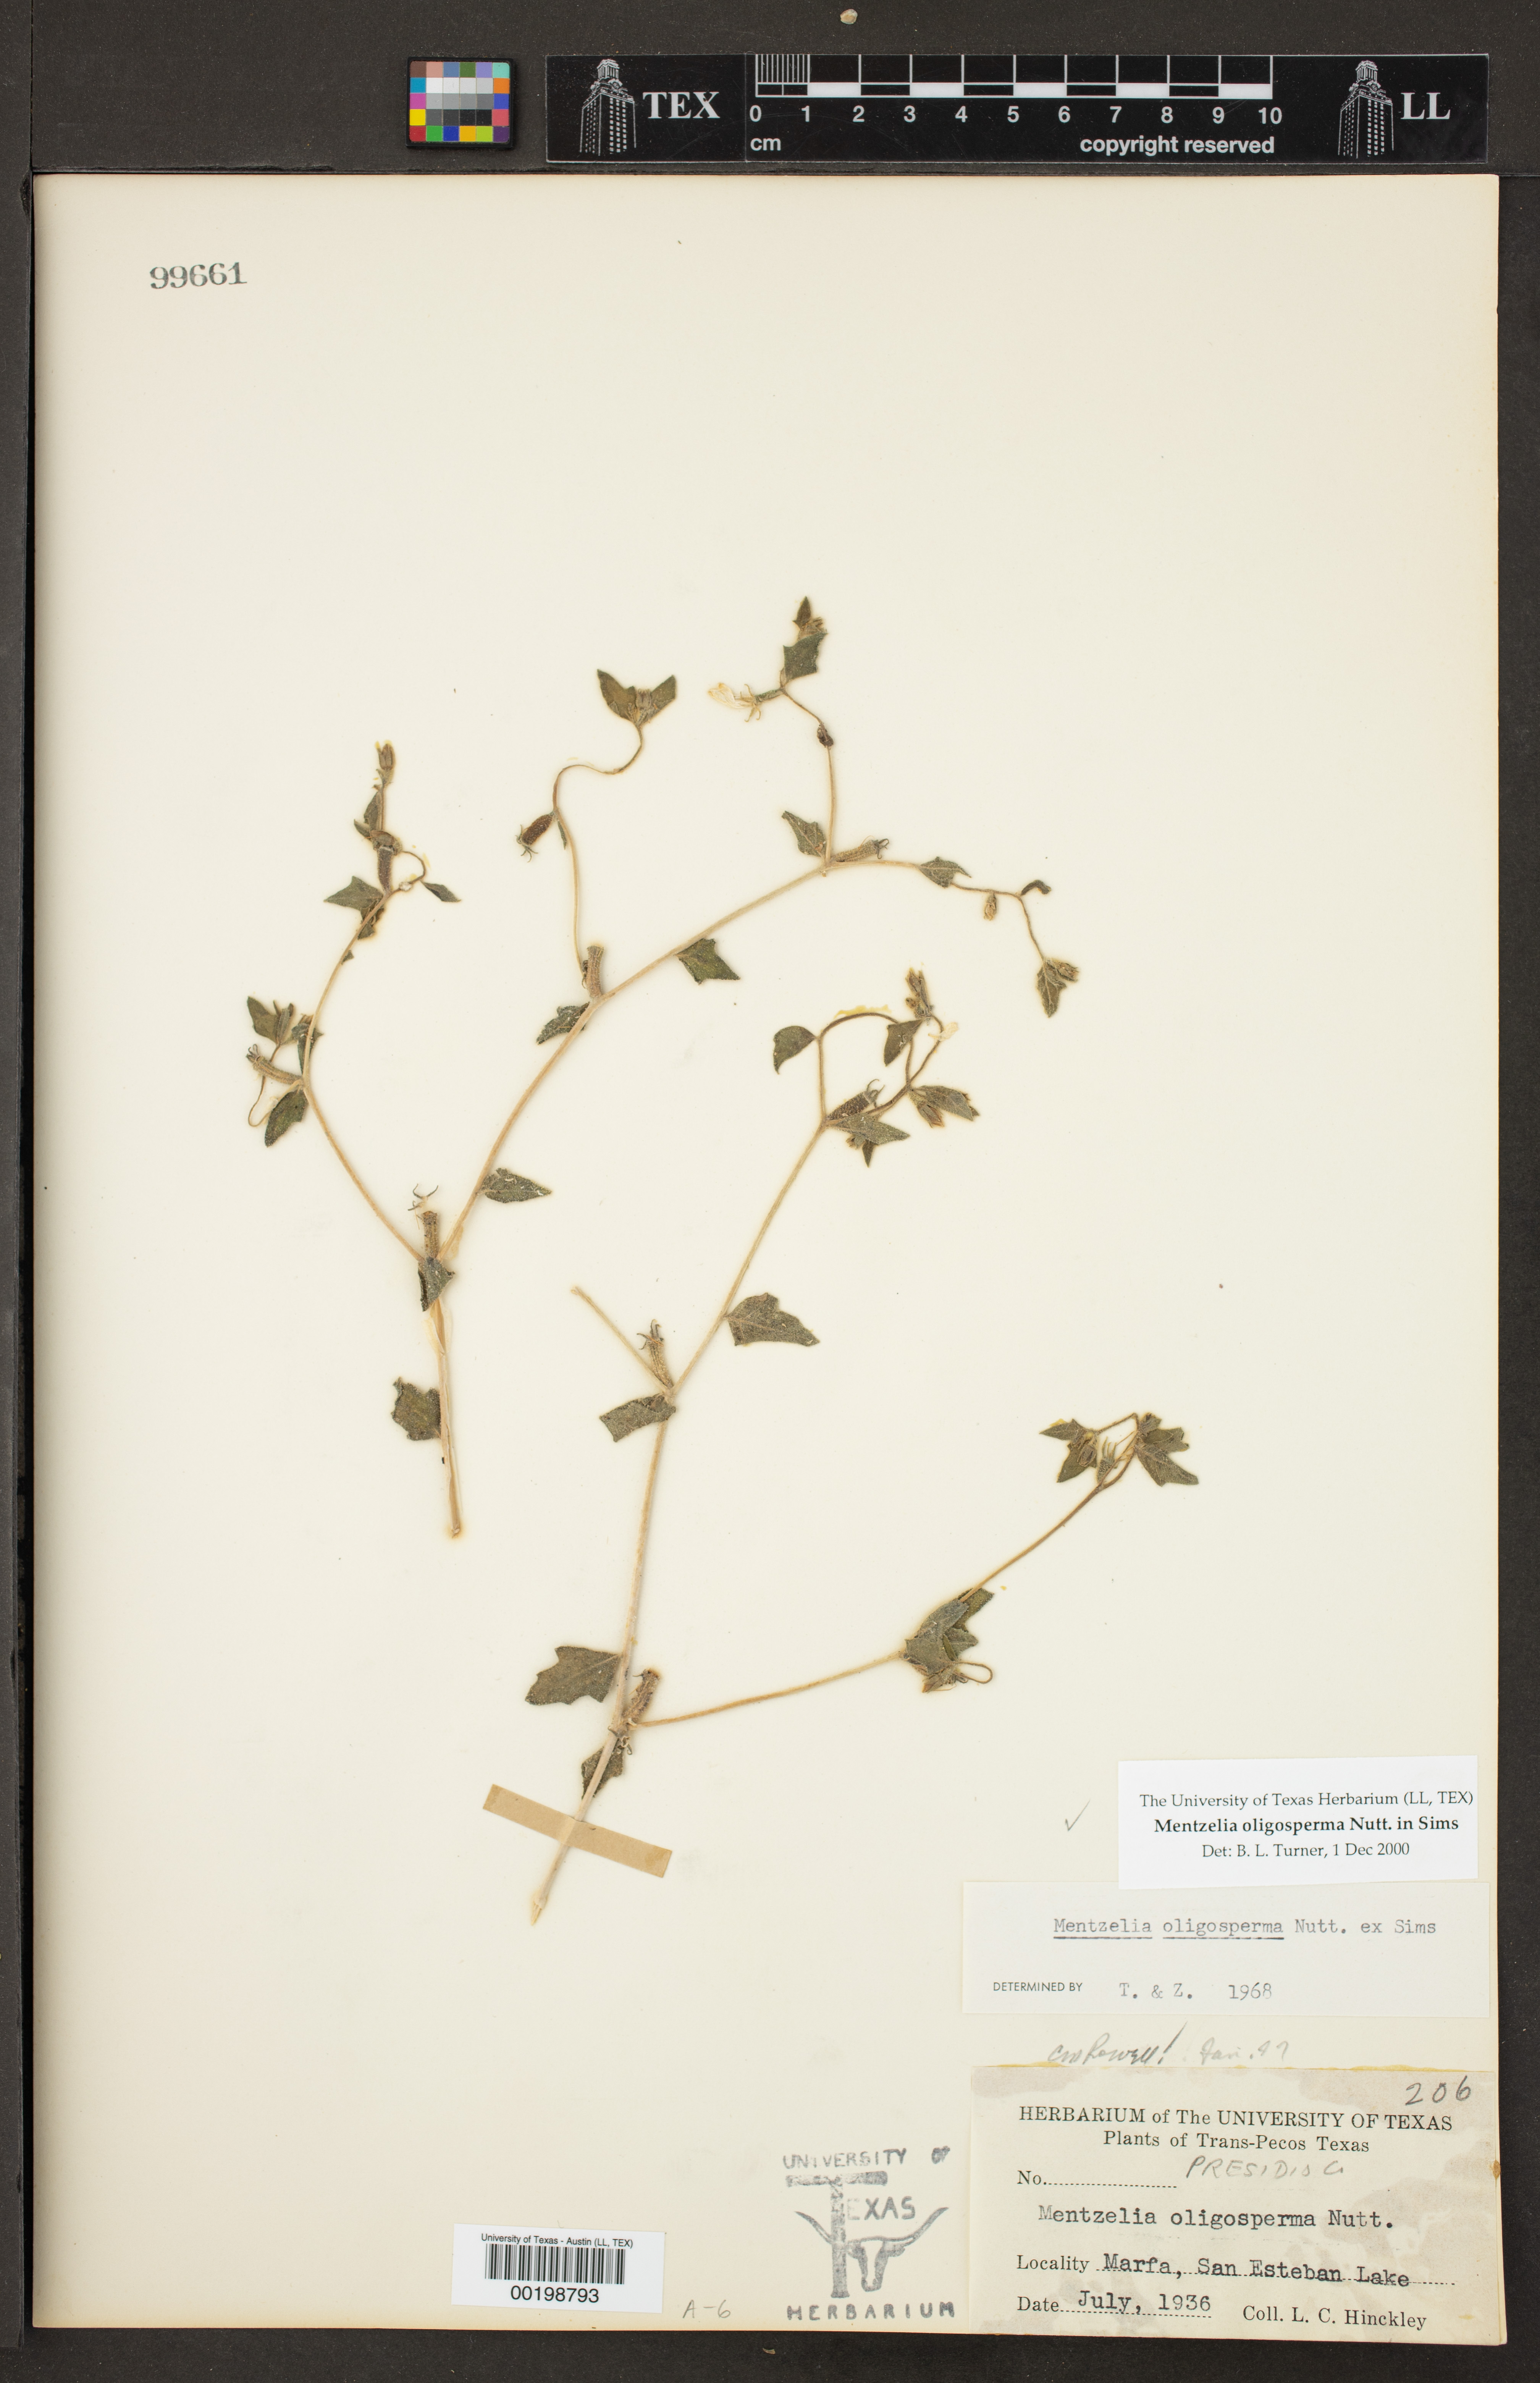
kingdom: Plantae
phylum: Tracheophyta
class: Magnoliopsida
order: Cornales
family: Loasaceae
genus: Mentzelia
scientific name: Mentzelia oligosperma
